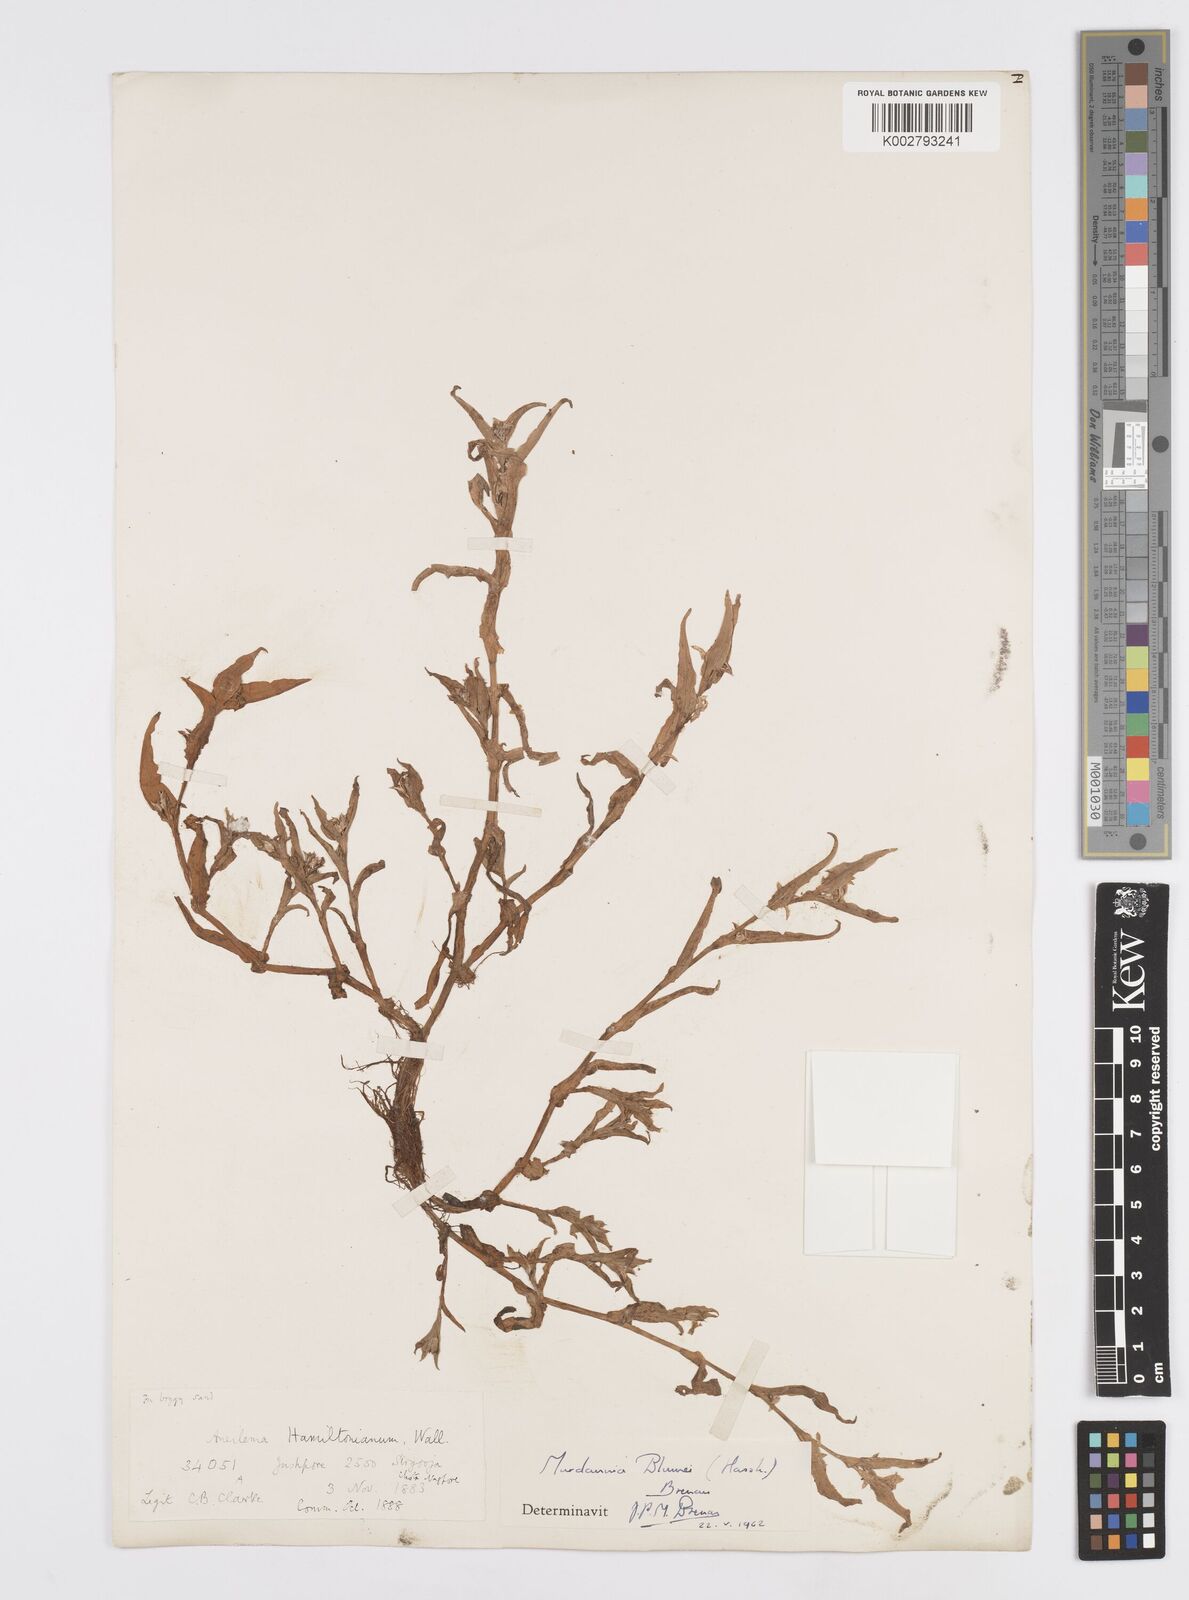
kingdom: Plantae
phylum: Tracheophyta
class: Liliopsida
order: Commelinales
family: Commelinaceae
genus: Murdannia
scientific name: Murdannia blumei
